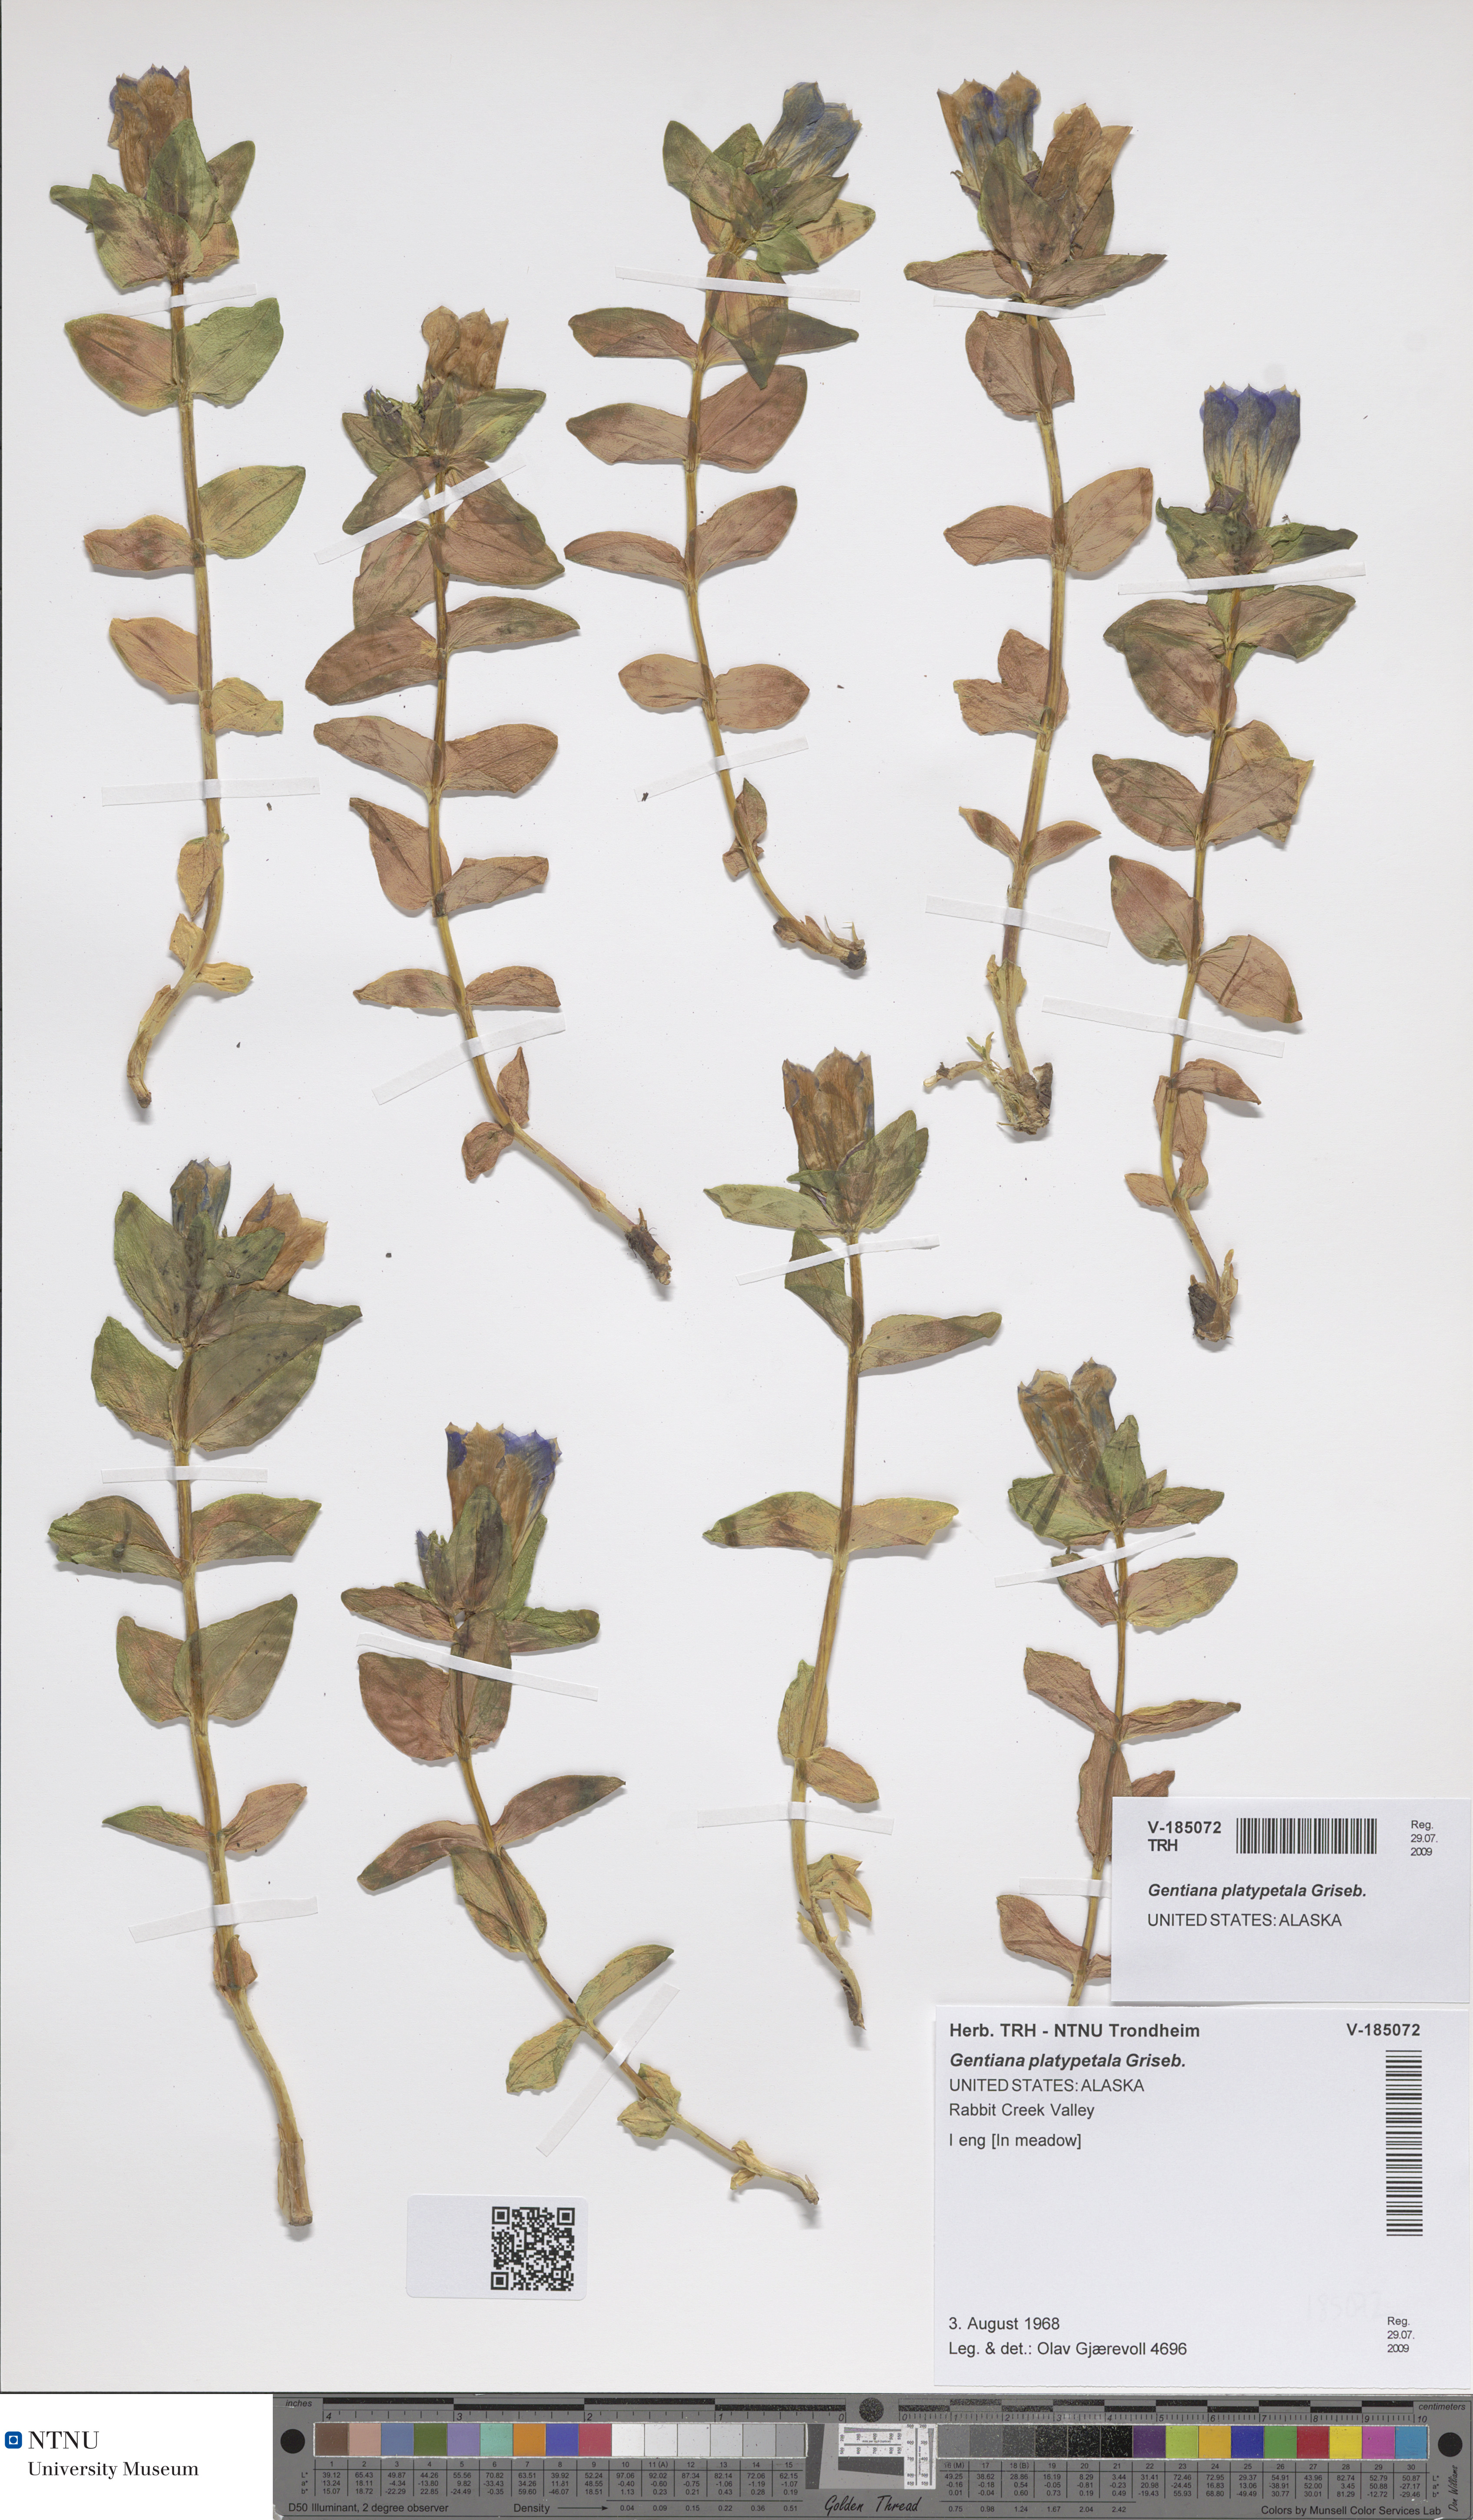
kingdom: Plantae
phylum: Tracheophyta
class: Magnoliopsida
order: Gentianales
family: Gentianaceae
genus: Gentiana
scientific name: Gentiana platypetala
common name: Broad-petalled gentian
